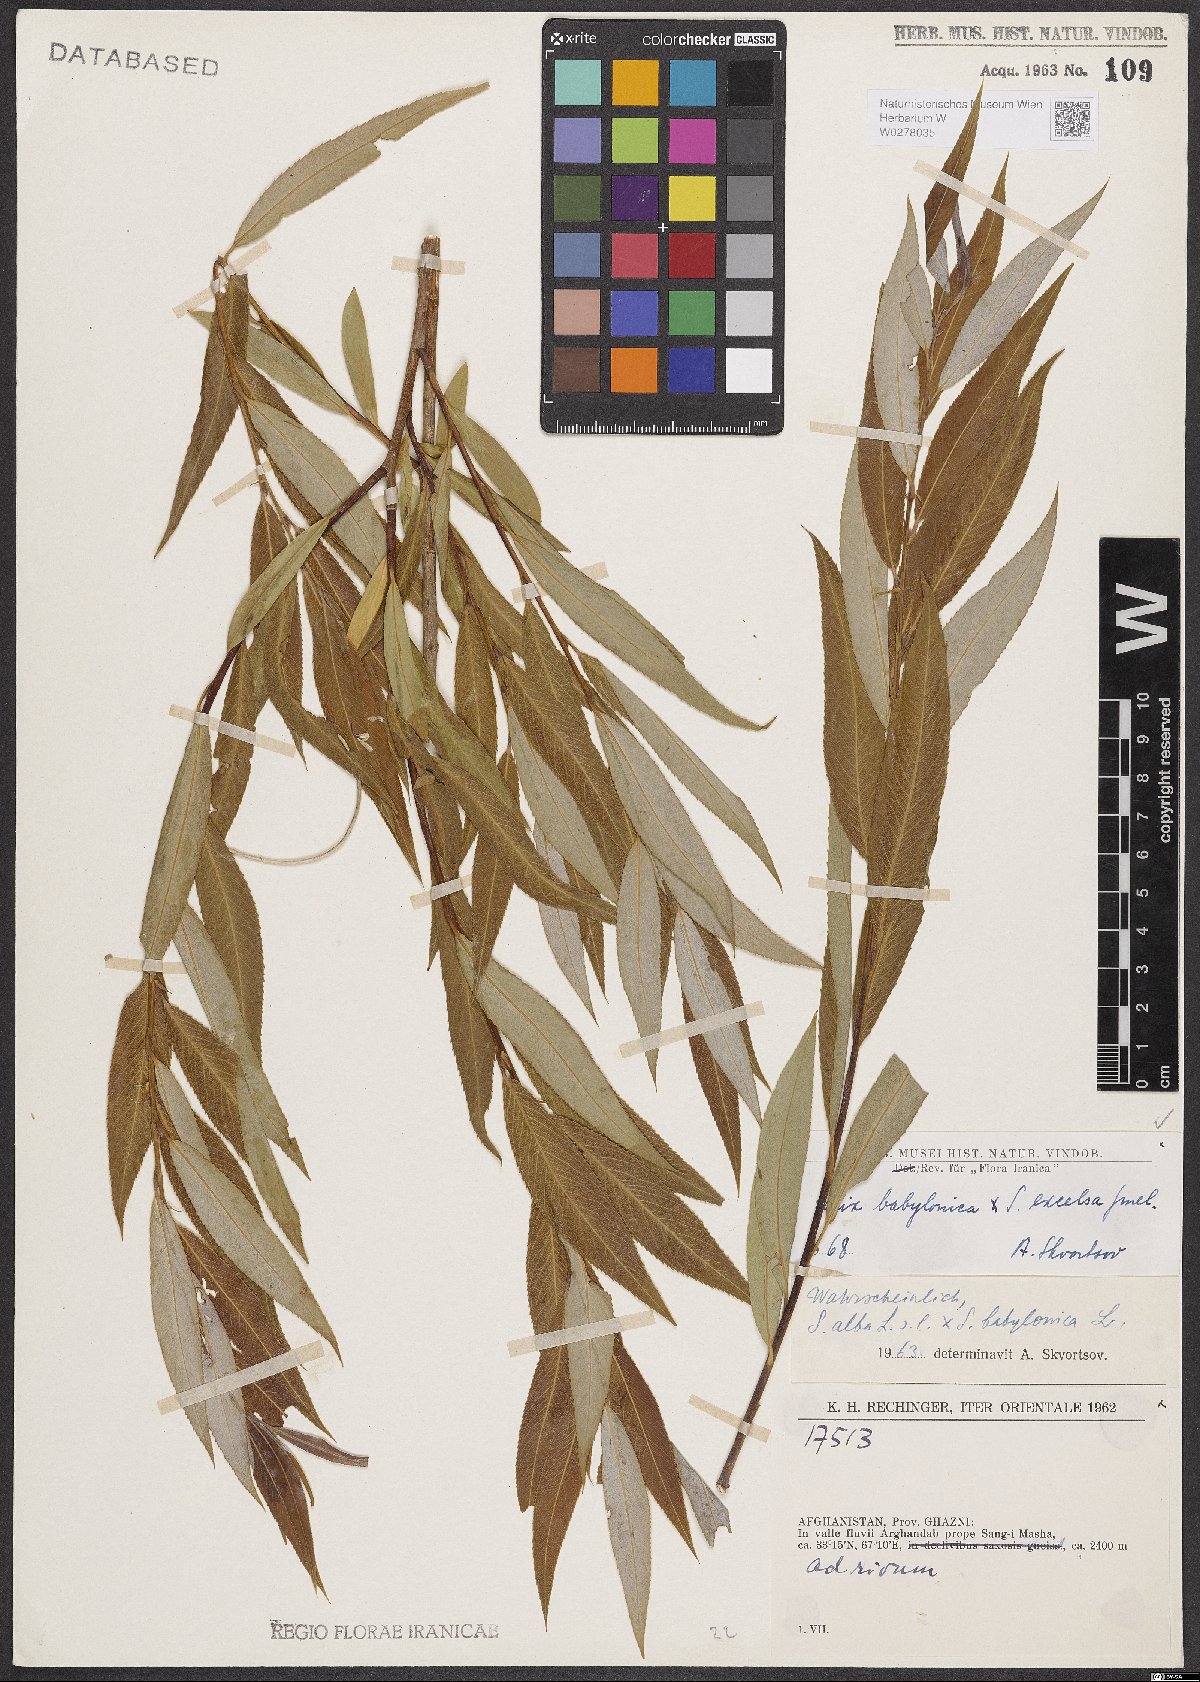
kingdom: Plantae
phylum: Tracheophyta
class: Magnoliopsida
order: Malpighiales
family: Salicaceae
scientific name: Salicaceae
